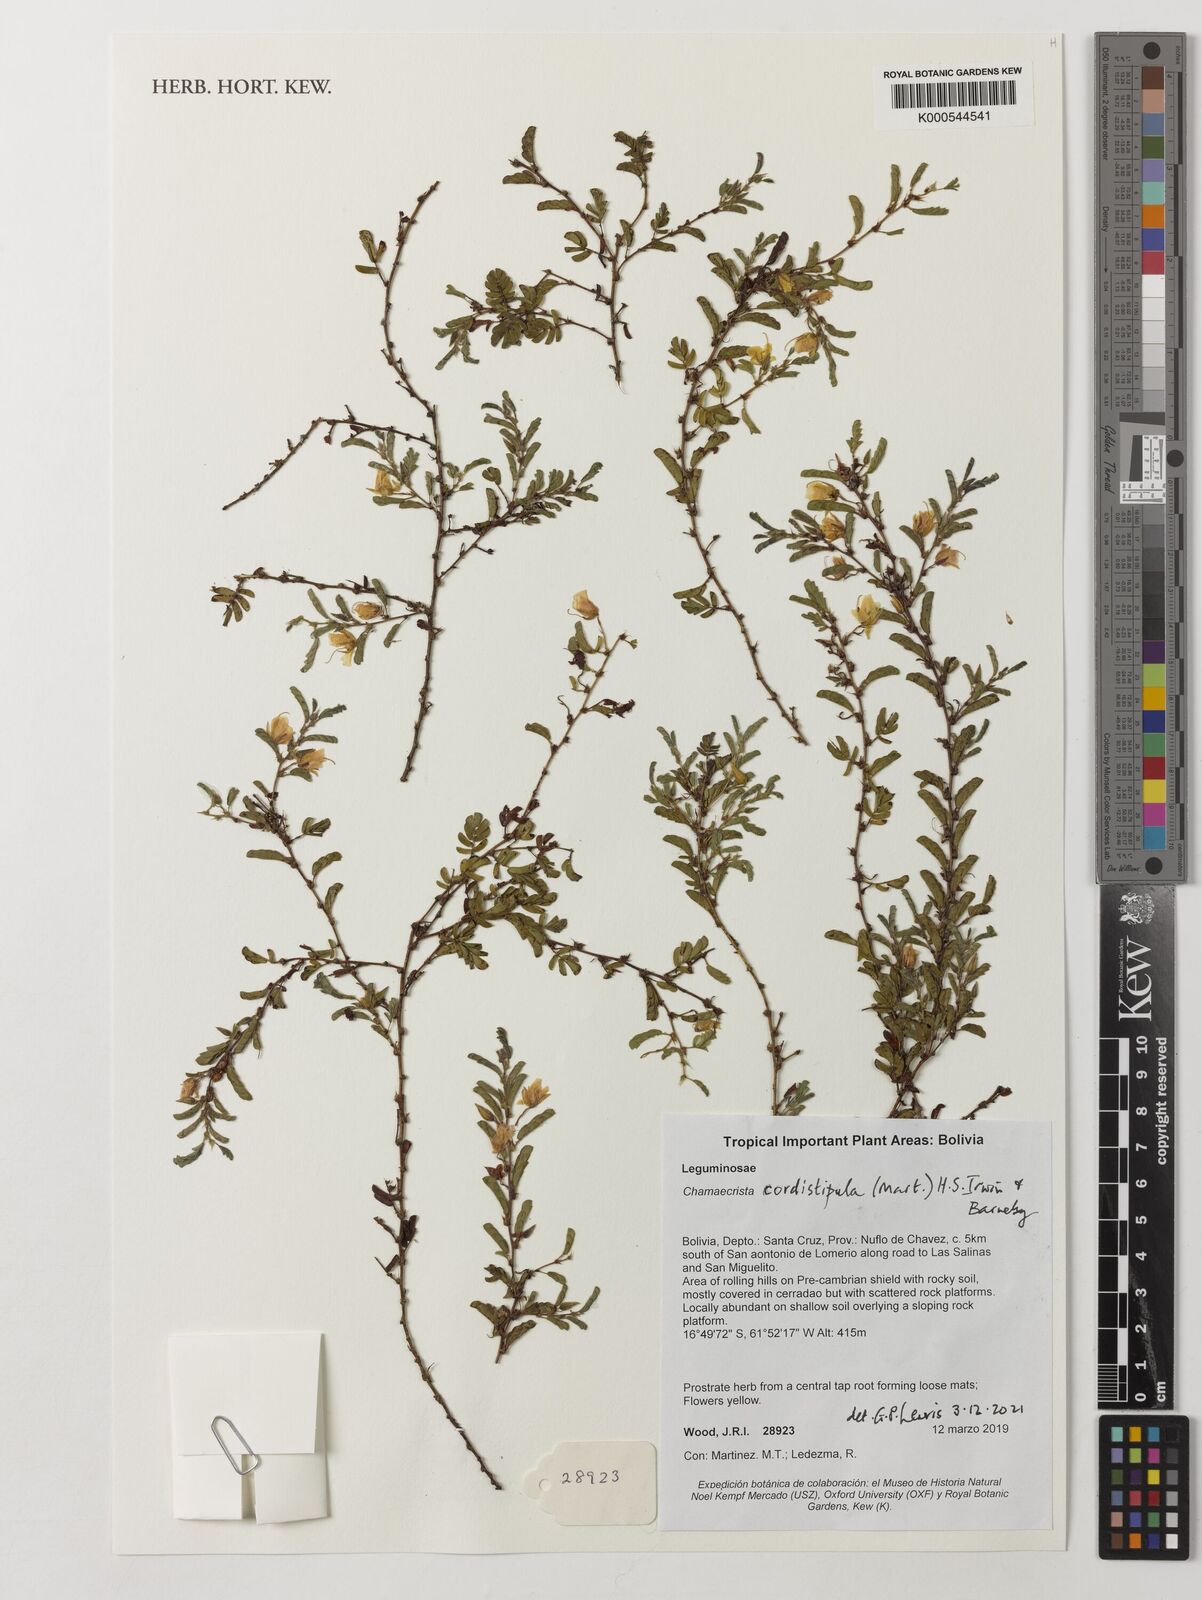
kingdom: Plantae
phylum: Tracheophyta
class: Magnoliopsida
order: Fabales
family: Fabaceae
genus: Chamaecrista
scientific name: Chamaecrista cordistipula
